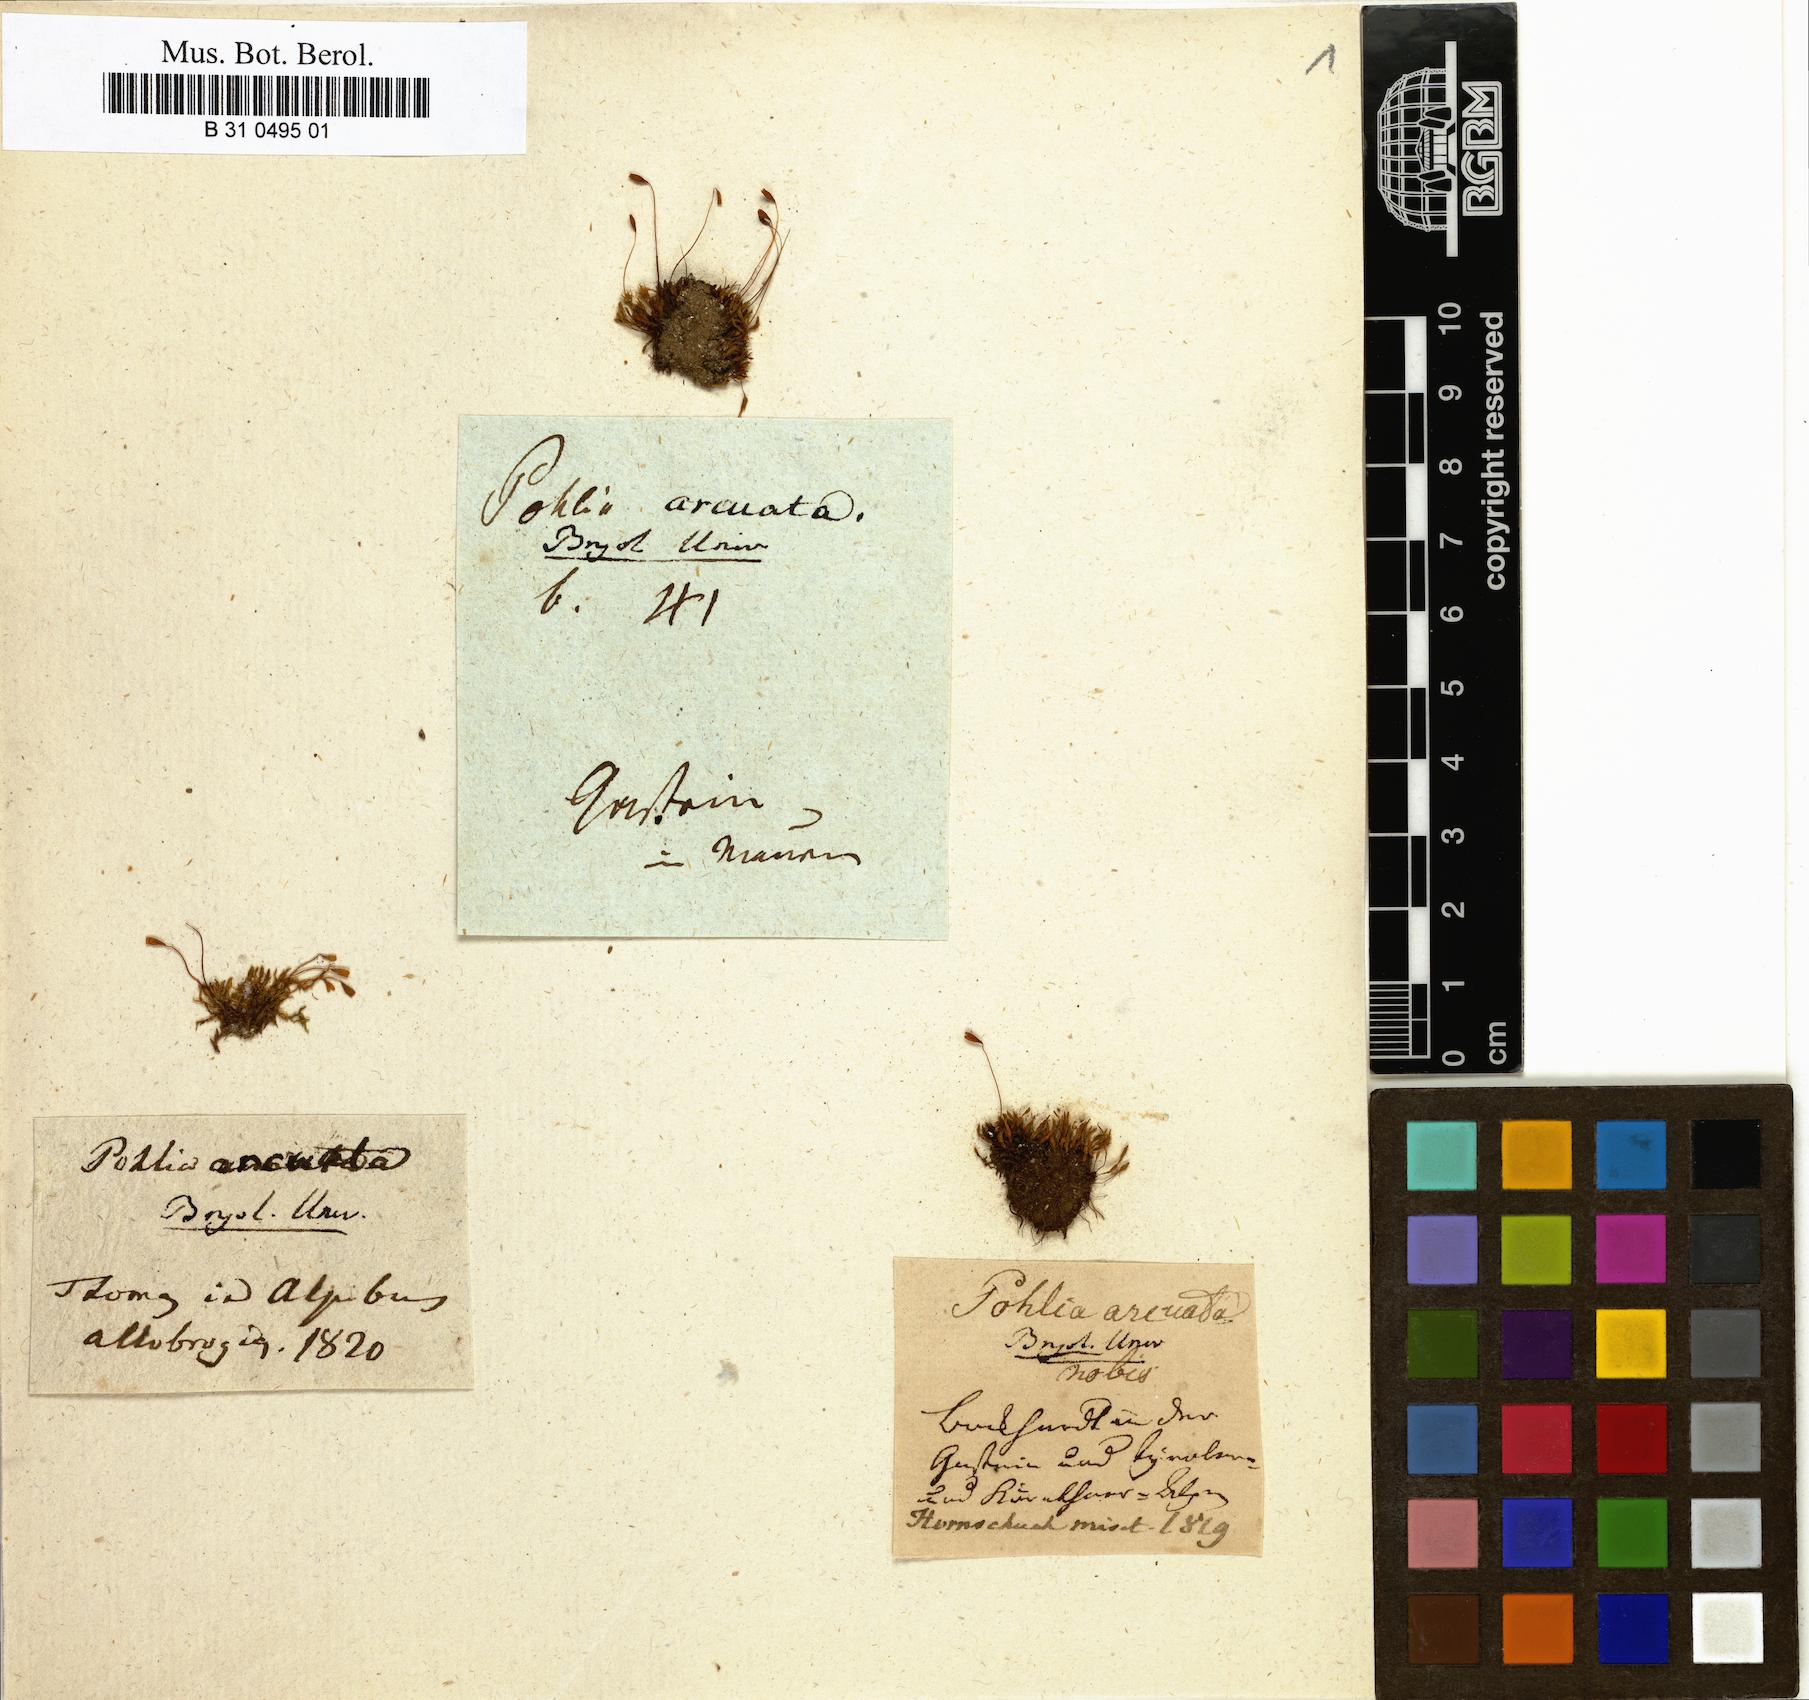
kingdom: Plantae
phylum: Bryophyta
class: Bryopsida
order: Bryales
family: Mniaceae
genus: Pohlia
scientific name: Pohlia elongata
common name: Long-fruited thread-moss
